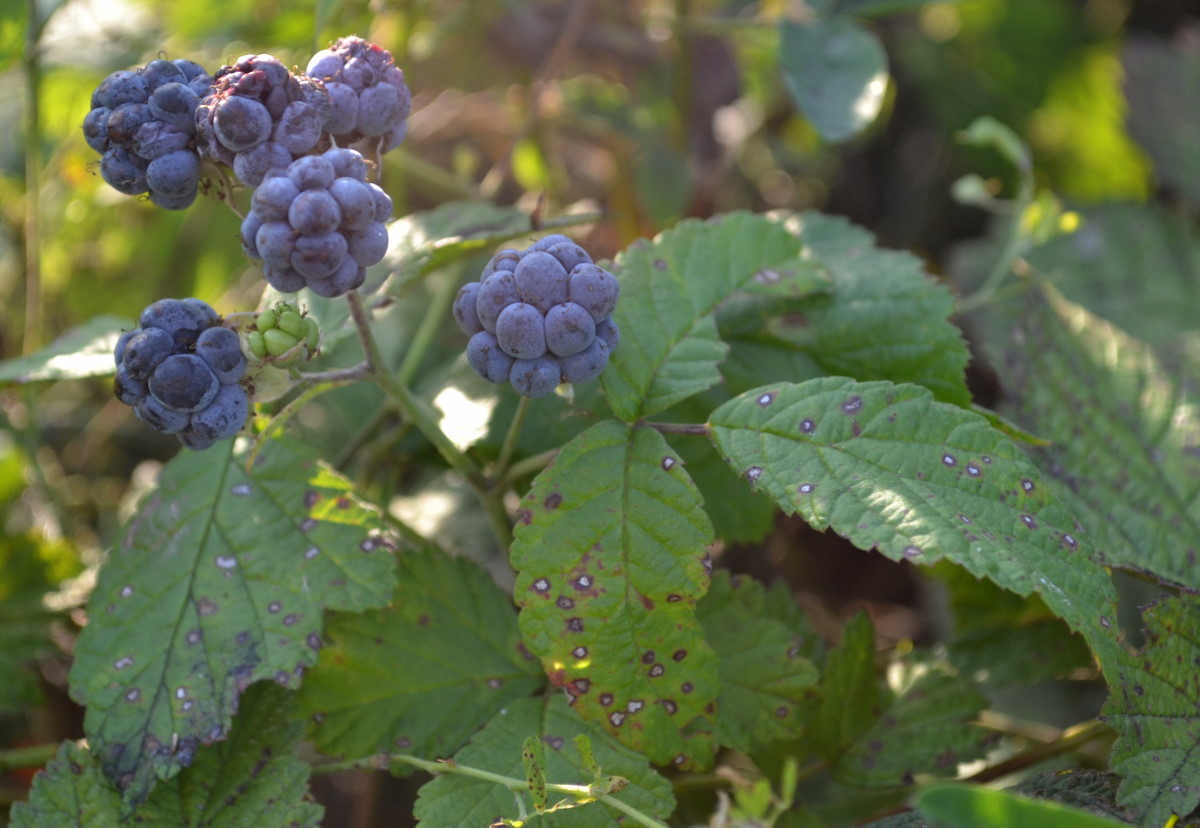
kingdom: Plantae
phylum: Tracheophyta
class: Magnoliopsida
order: Rosales
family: Rosaceae
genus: Rubus
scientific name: Rubus caesius
